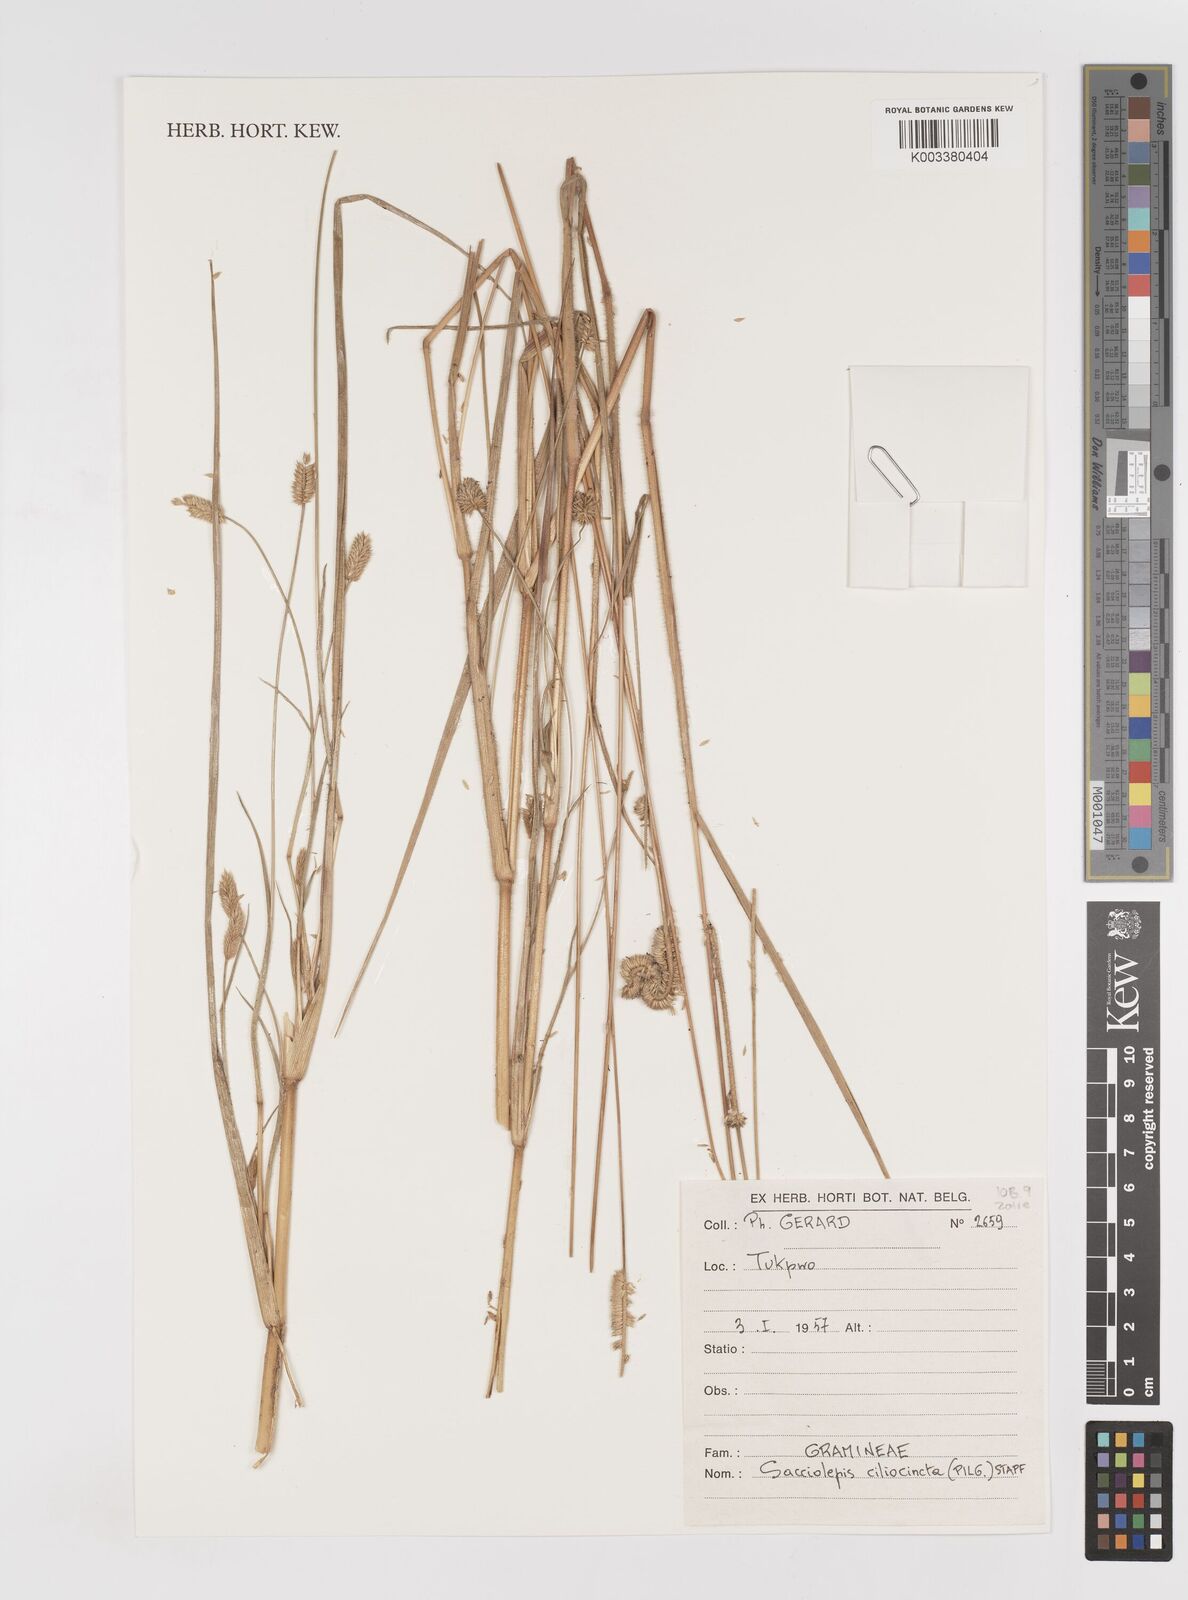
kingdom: Plantae
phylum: Tracheophyta
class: Liliopsida
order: Poales
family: Poaceae
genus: Sacciolepis
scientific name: Sacciolepis ciliocincta
